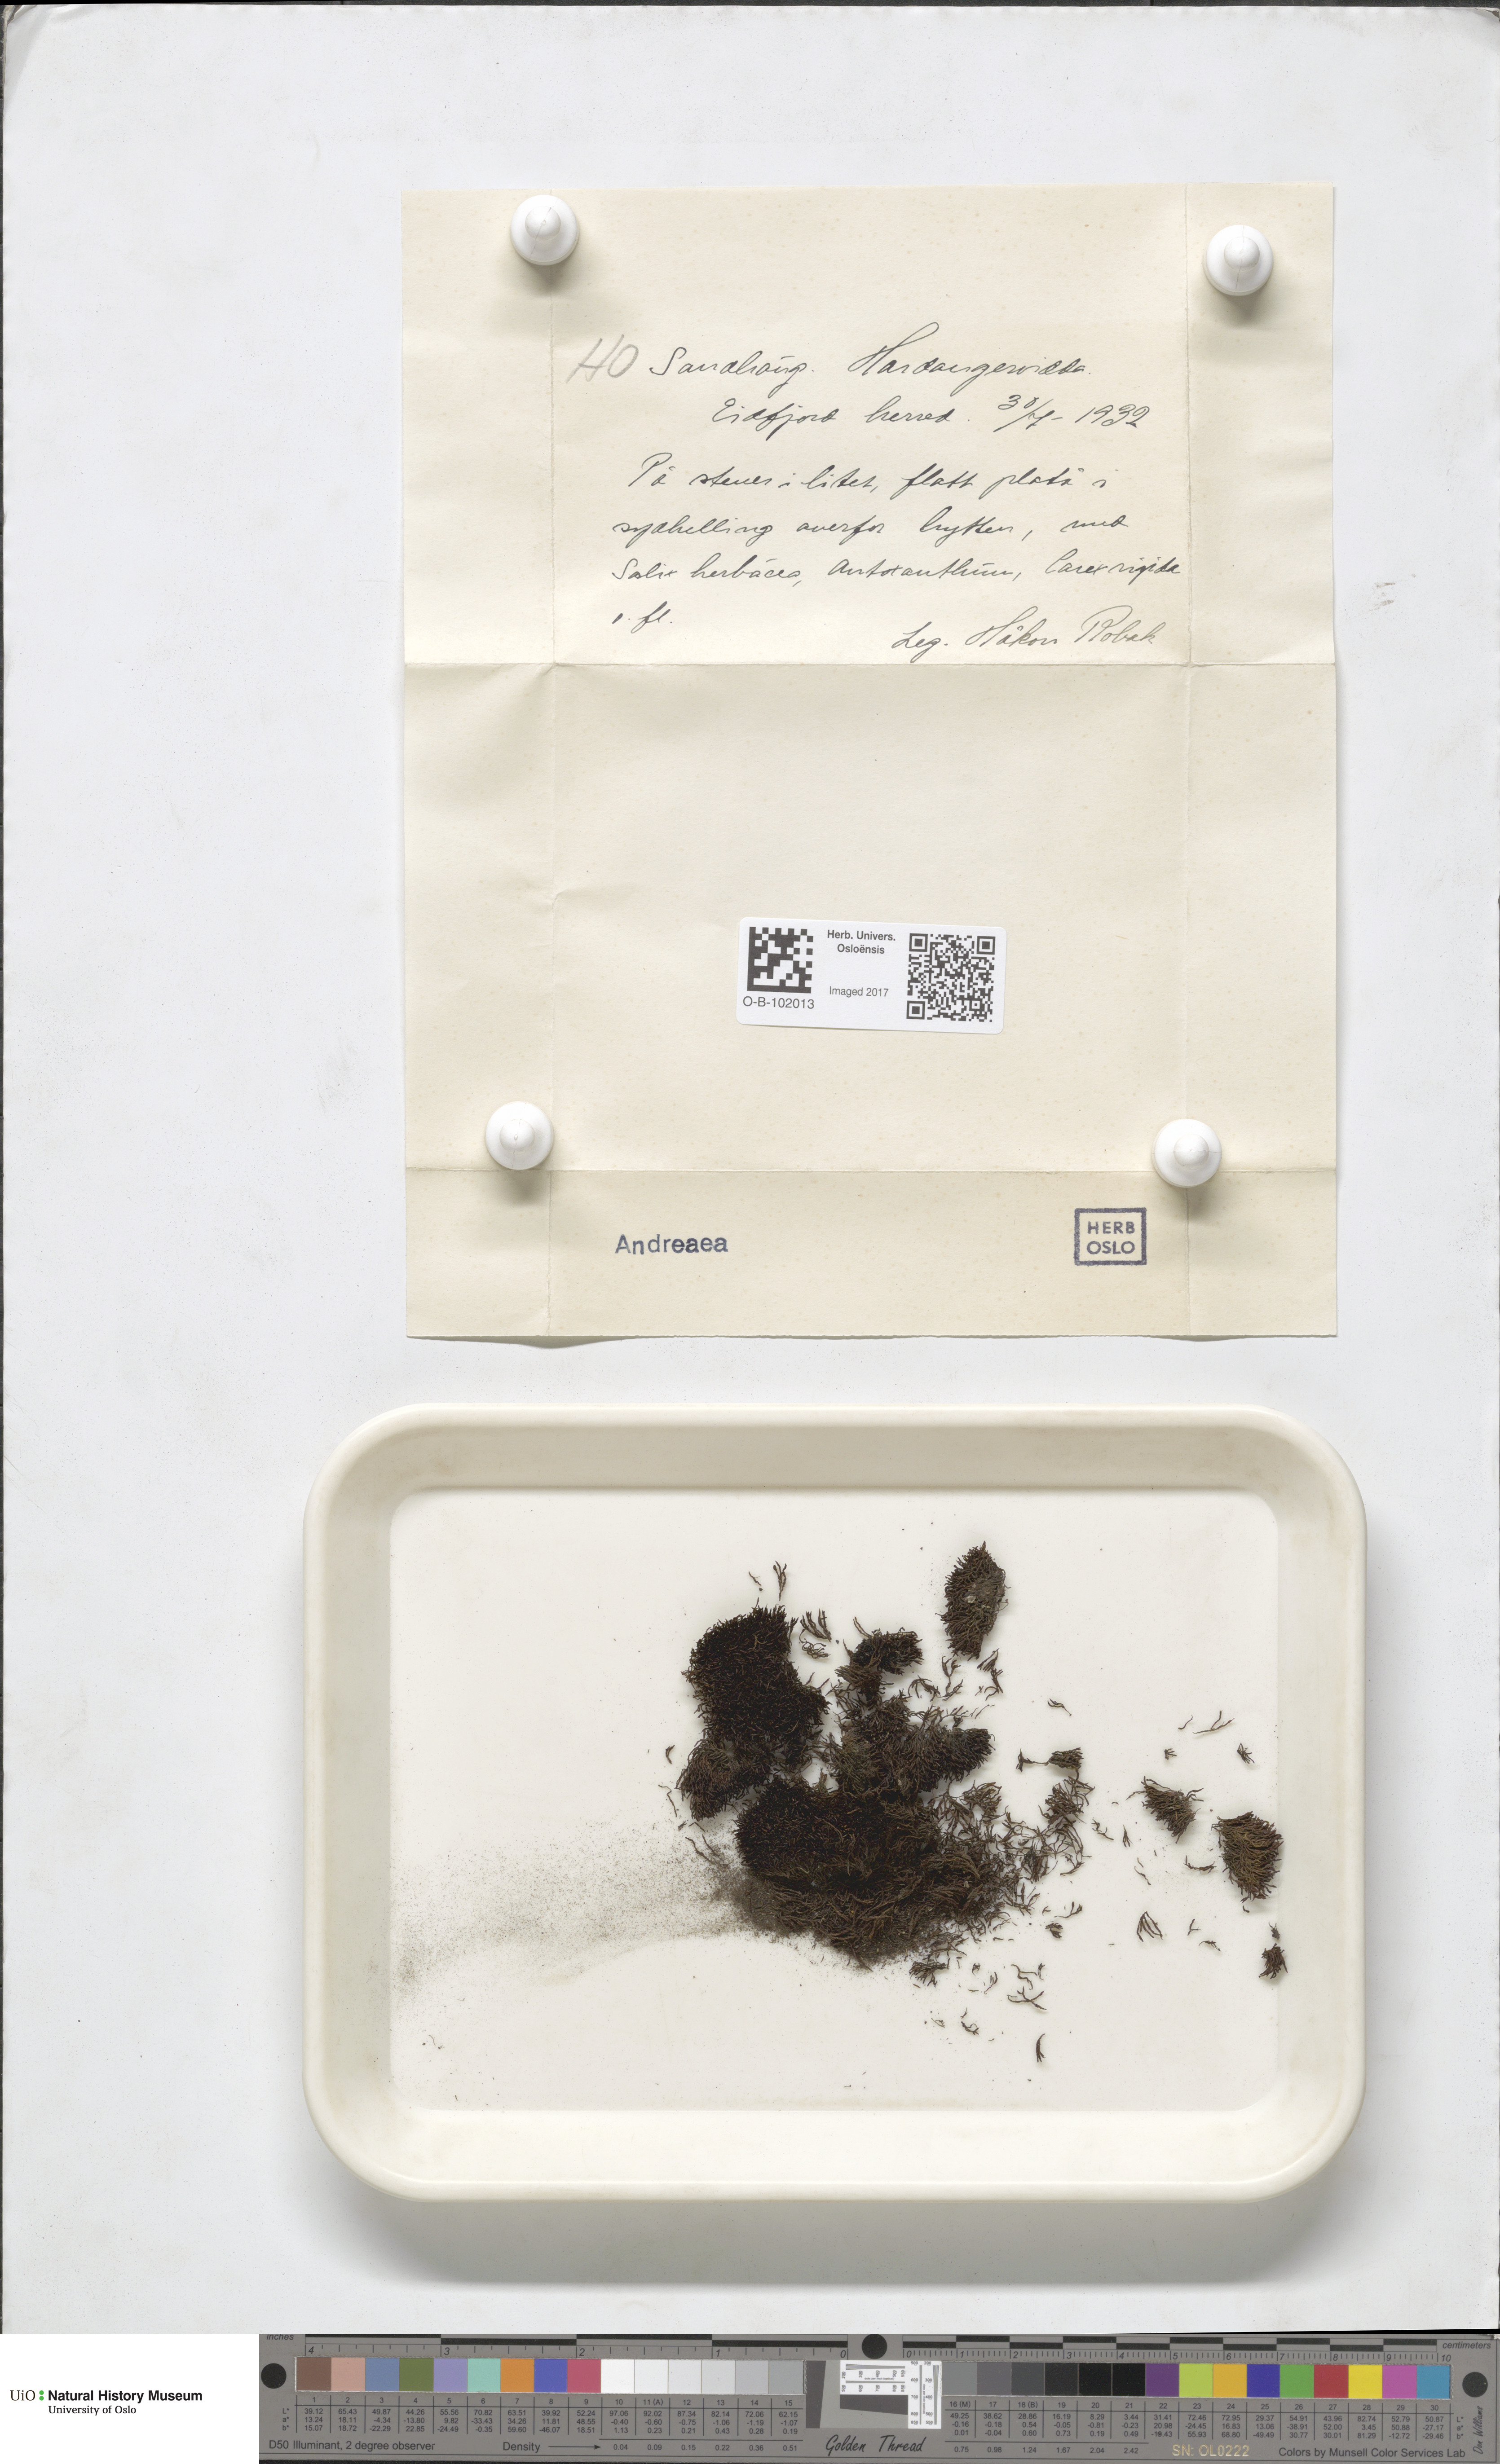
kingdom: Plantae
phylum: Bryophyta
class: Andreaeopsida
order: Andreaeales
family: Andreaeaceae
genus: Andreaea
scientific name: Andreaea
